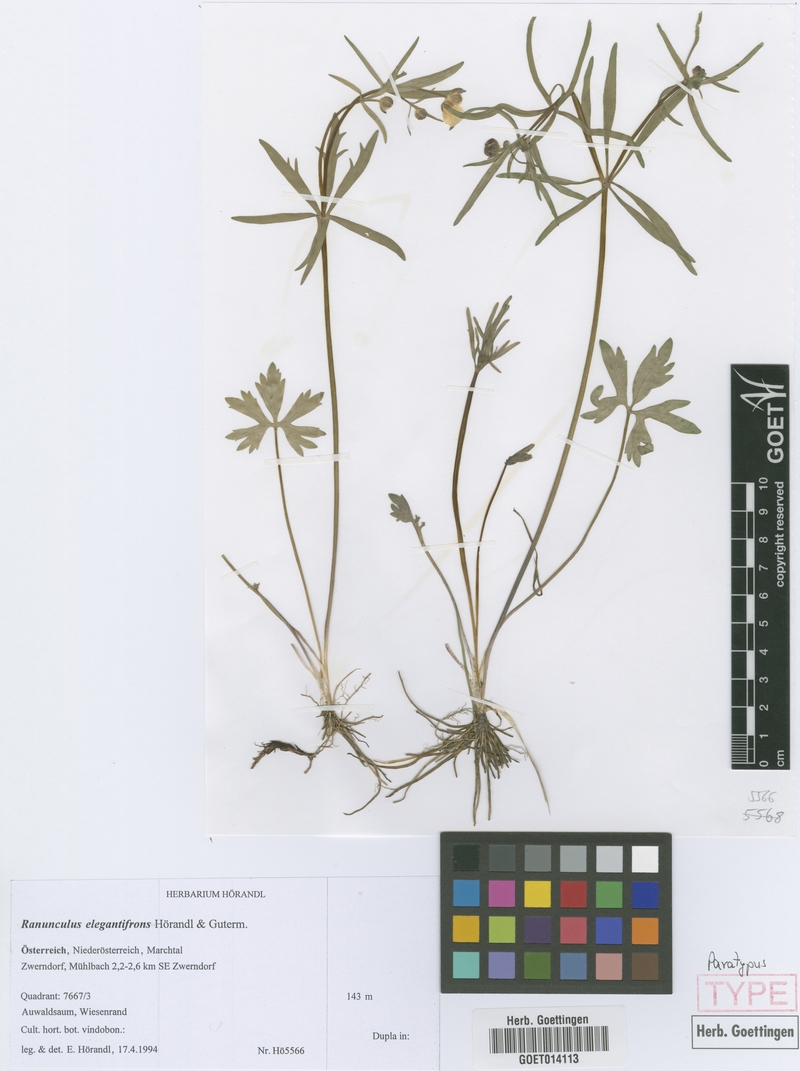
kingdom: Plantae
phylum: Tracheophyta
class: Magnoliopsida
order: Ranunculales
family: Ranunculaceae
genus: Ranunculus
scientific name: Ranunculus elegantifrons
